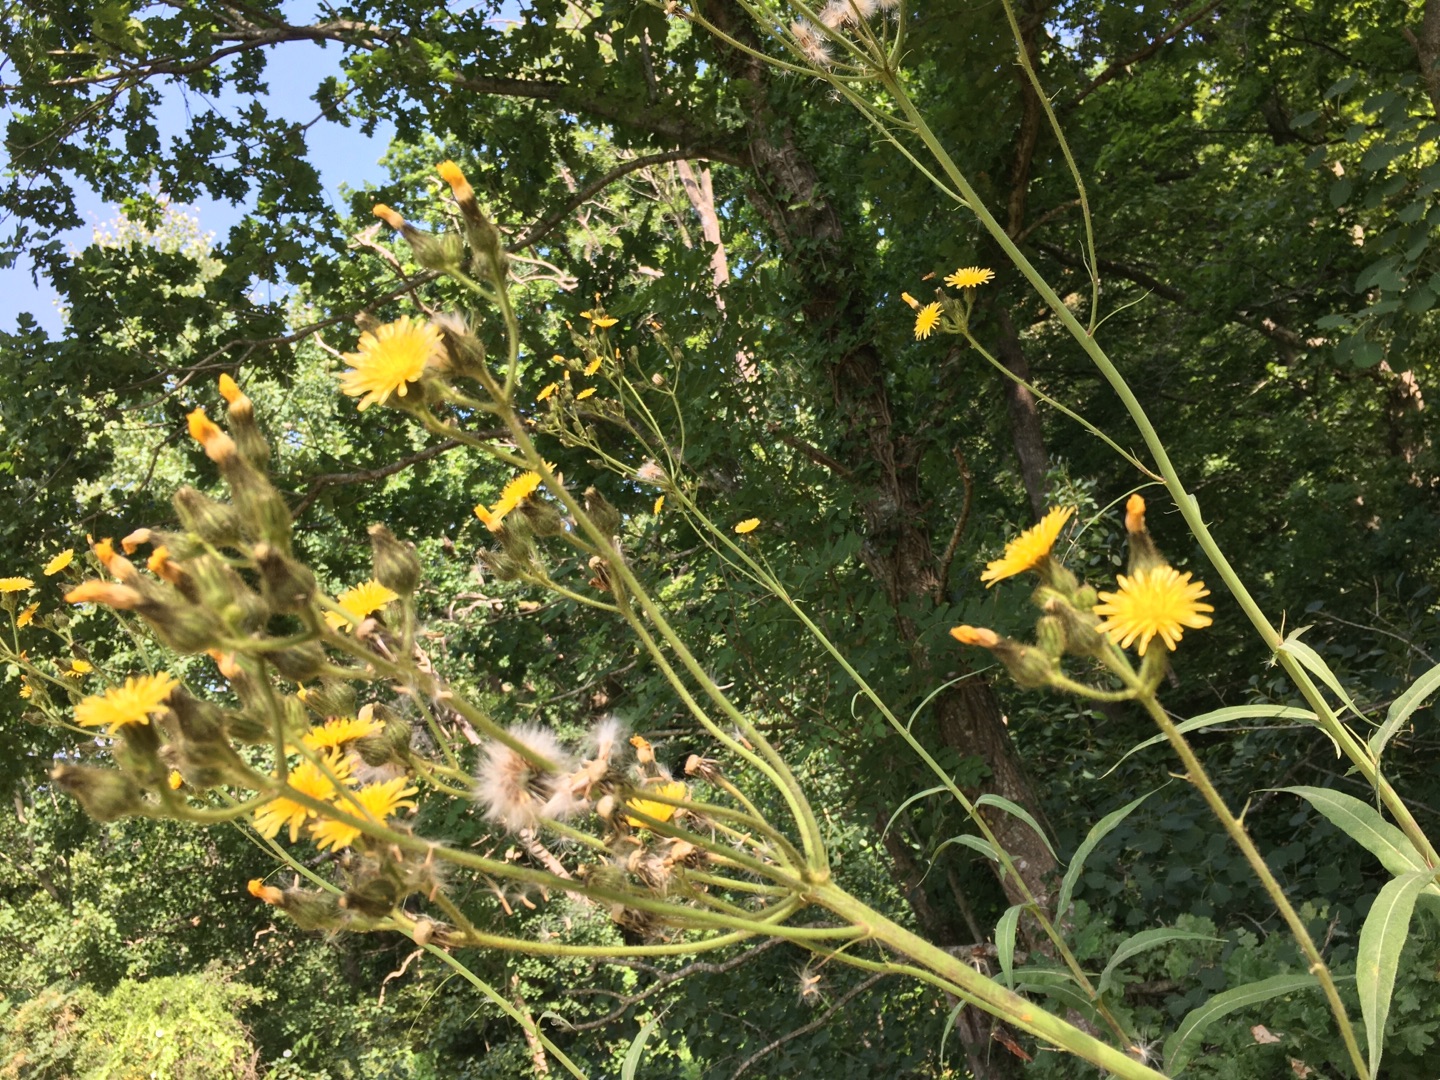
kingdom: Plantae
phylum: Tracheophyta
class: Magnoliopsida
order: Asterales
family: Asteraceae
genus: Sonchus
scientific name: Sonchus palustris
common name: Kær-svinemælk
